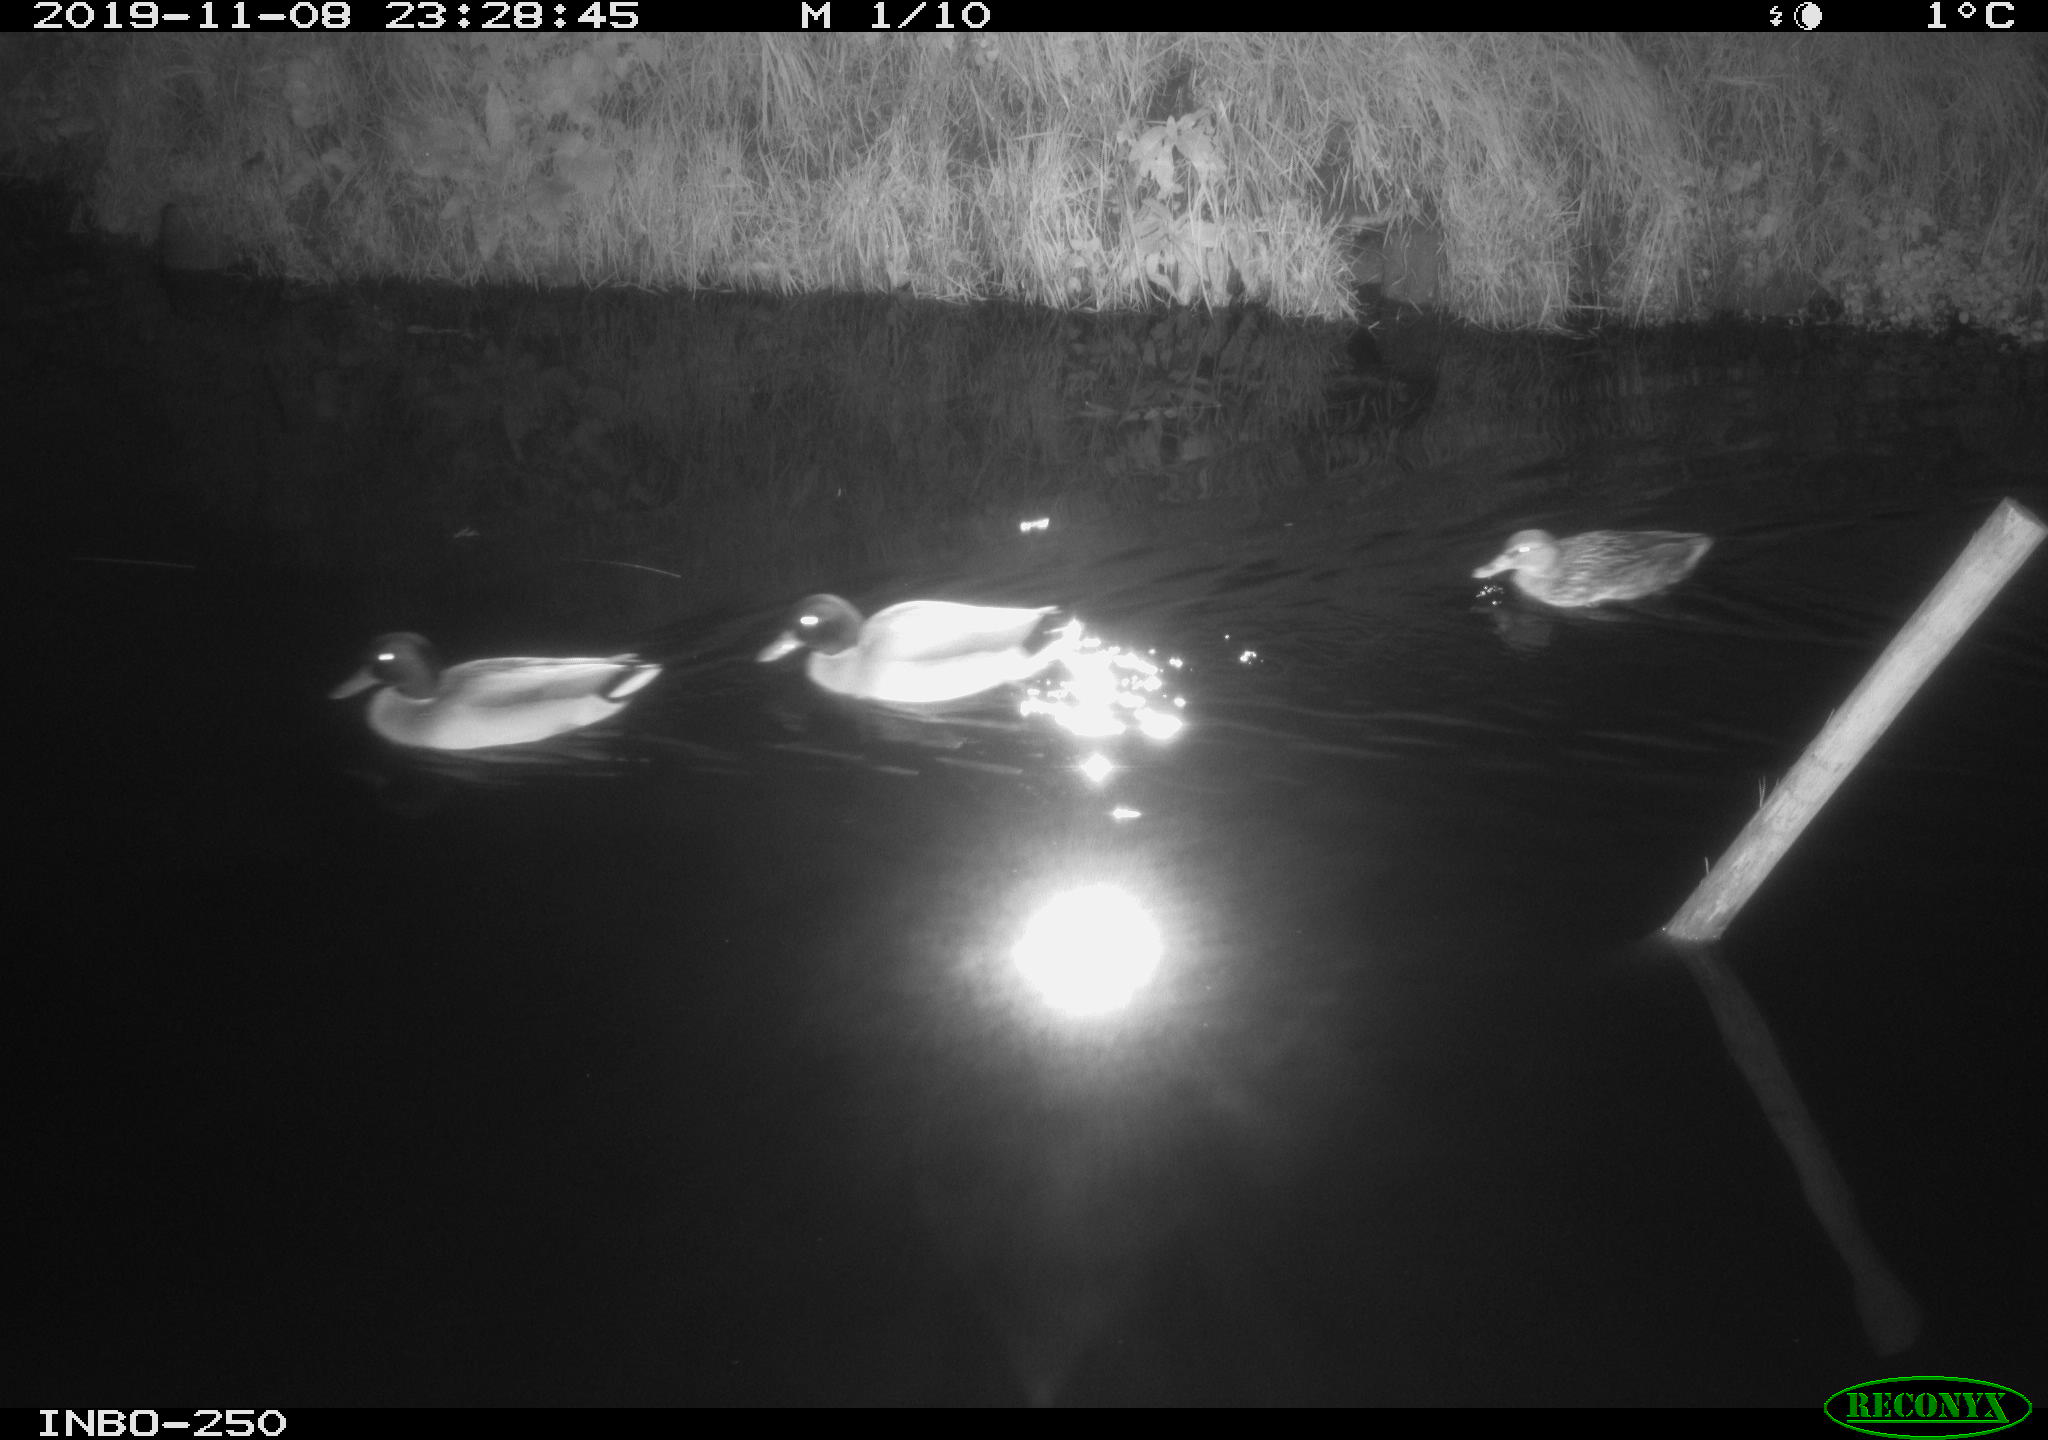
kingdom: Animalia
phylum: Chordata
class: Aves
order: Anseriformes
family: Anatidae
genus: Anas
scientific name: Anas platyrhynchos
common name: Mallard
